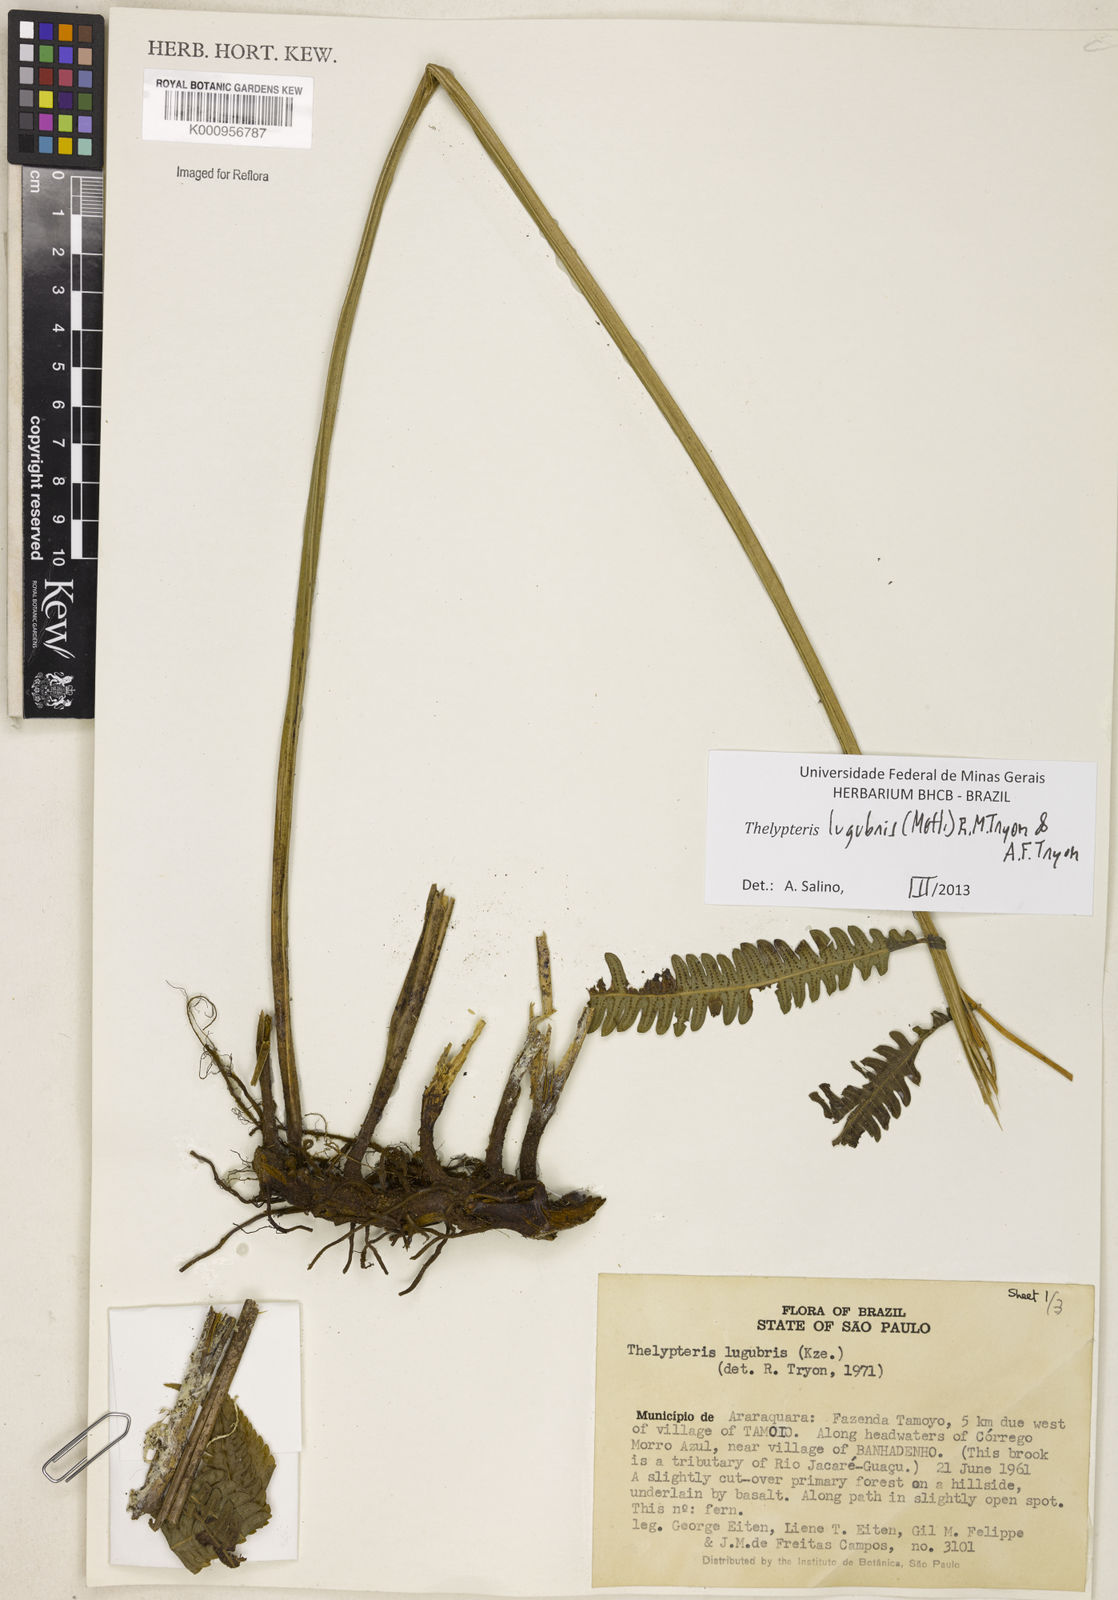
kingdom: Plantae
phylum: Tracheophyta
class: Polypodiopsida
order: Polypodiales
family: Thelypteridaceae
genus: Goniopteris
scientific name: Goniopteris lugubris
